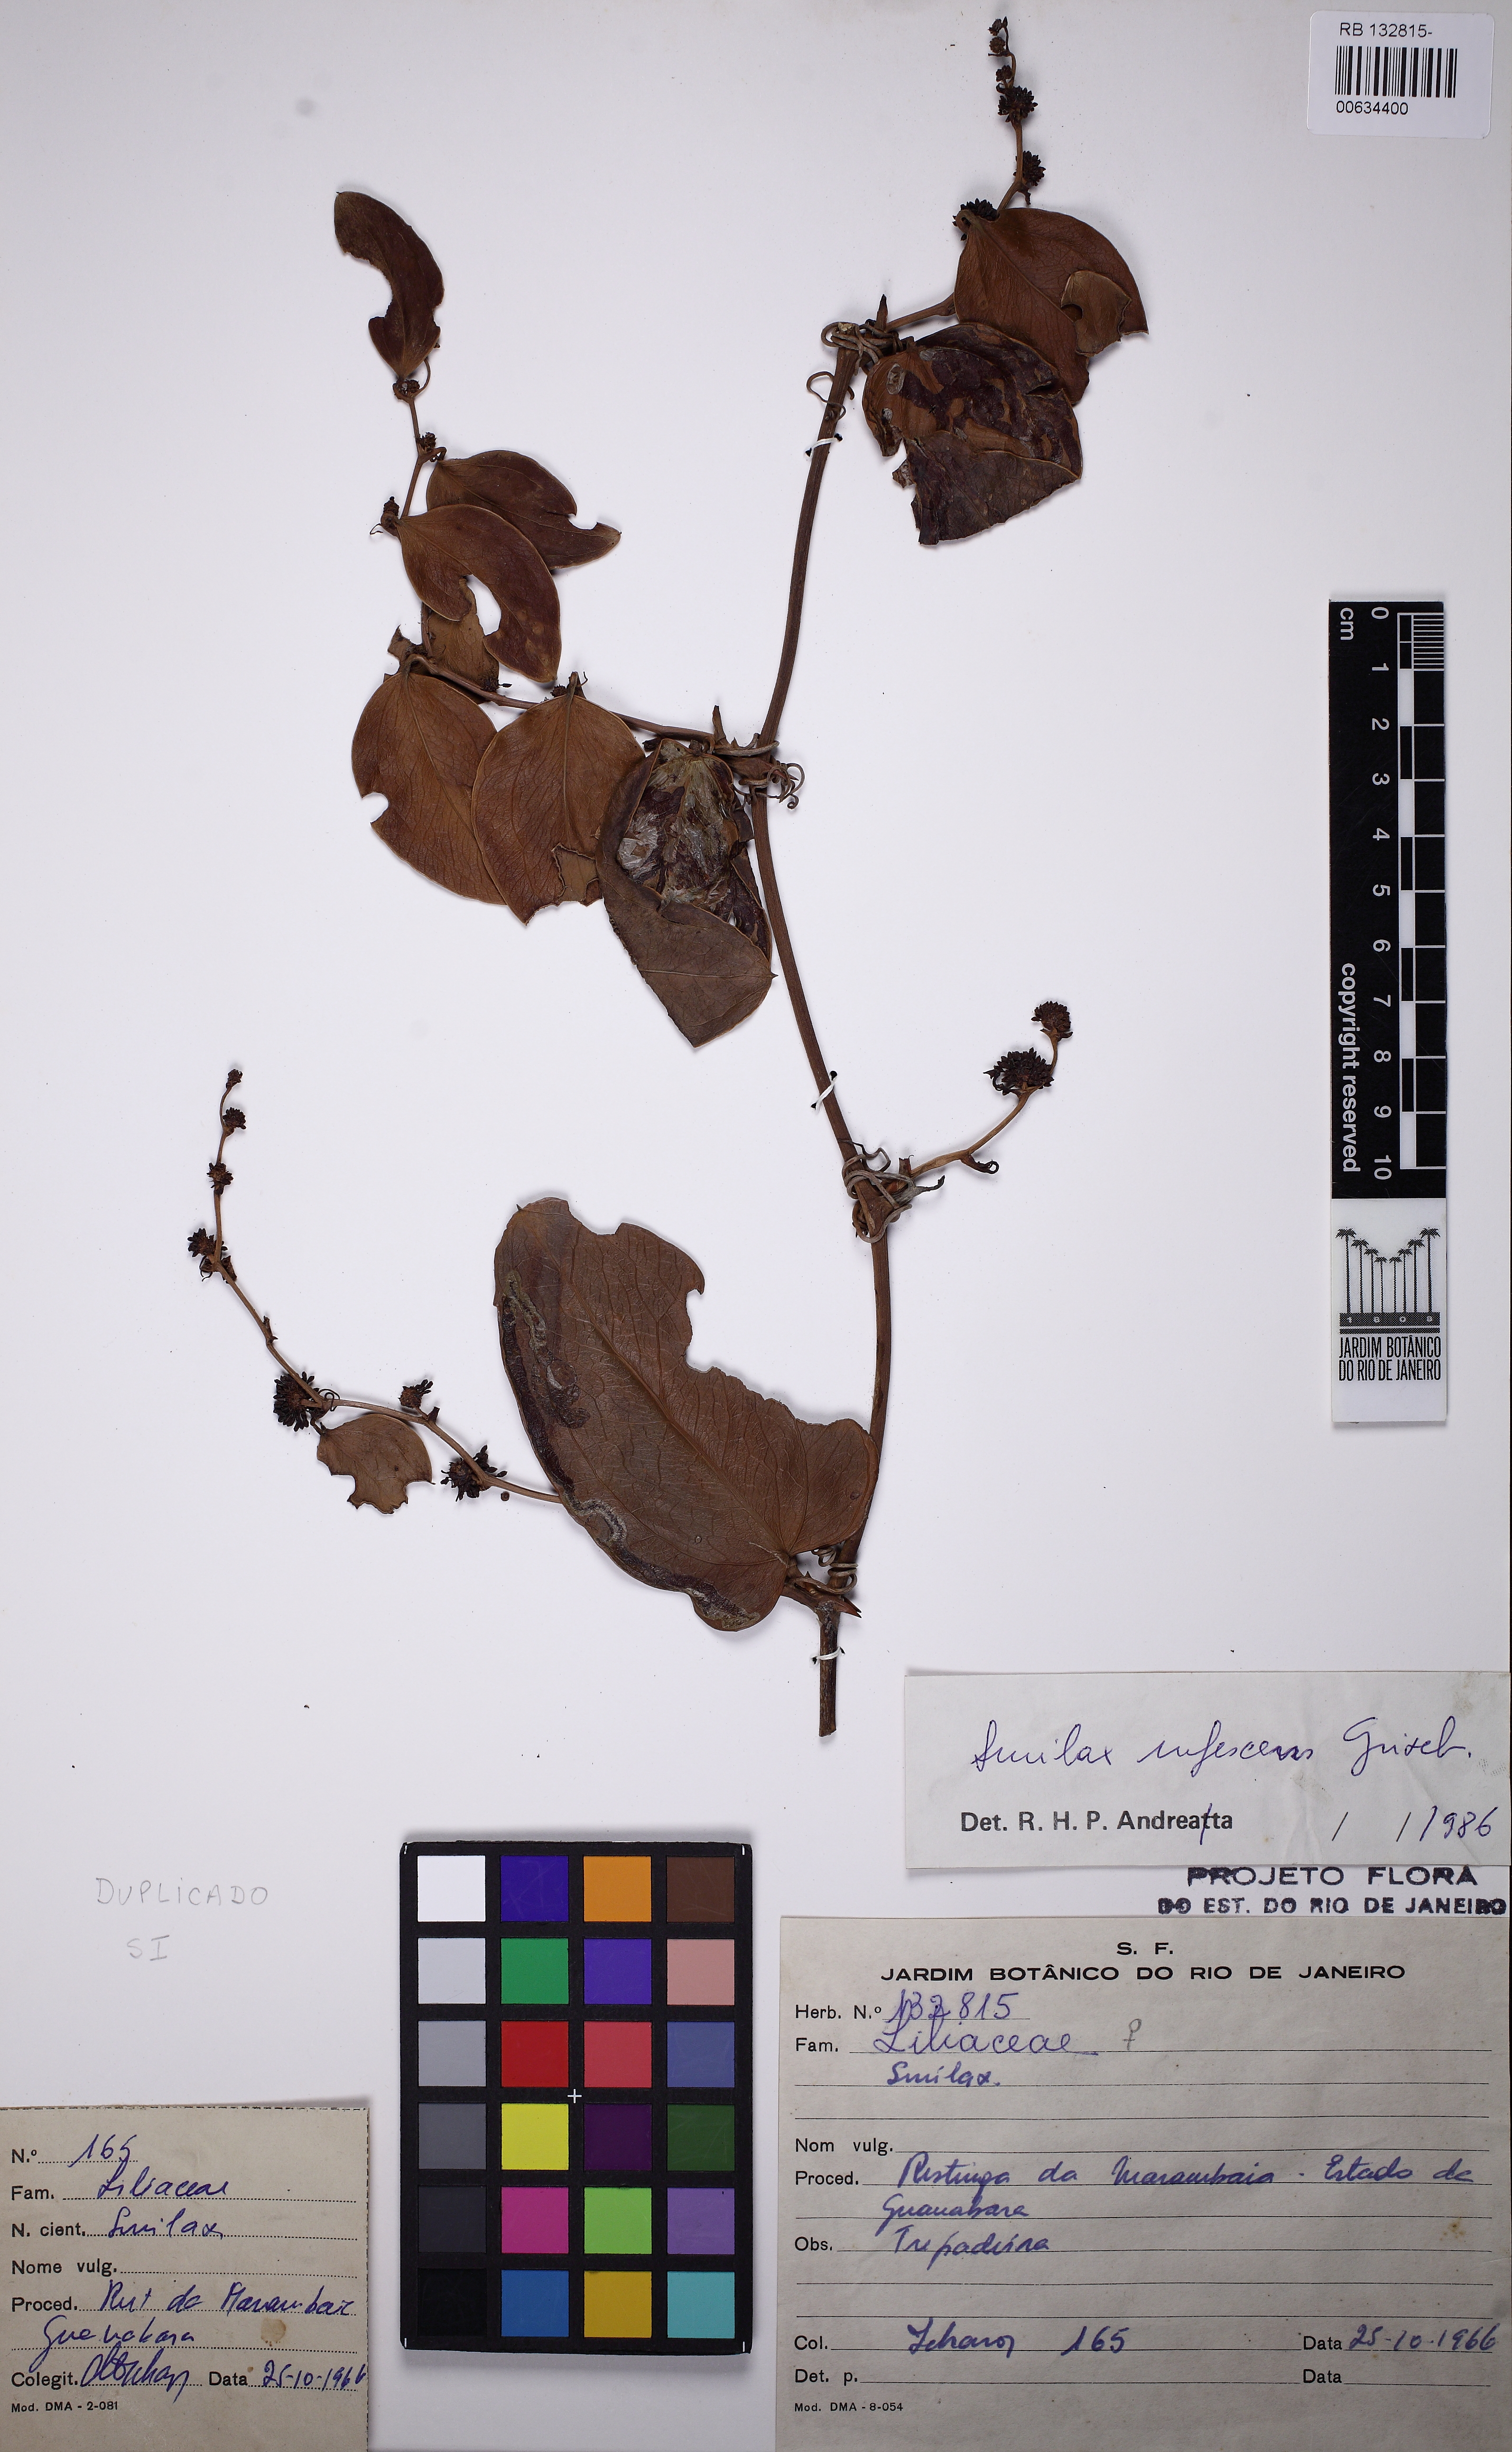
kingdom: Plantae
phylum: Tracheophyta
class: Liliopsida
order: Liliales
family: Smilacaceae
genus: Smilax
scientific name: Smilax rufescens
